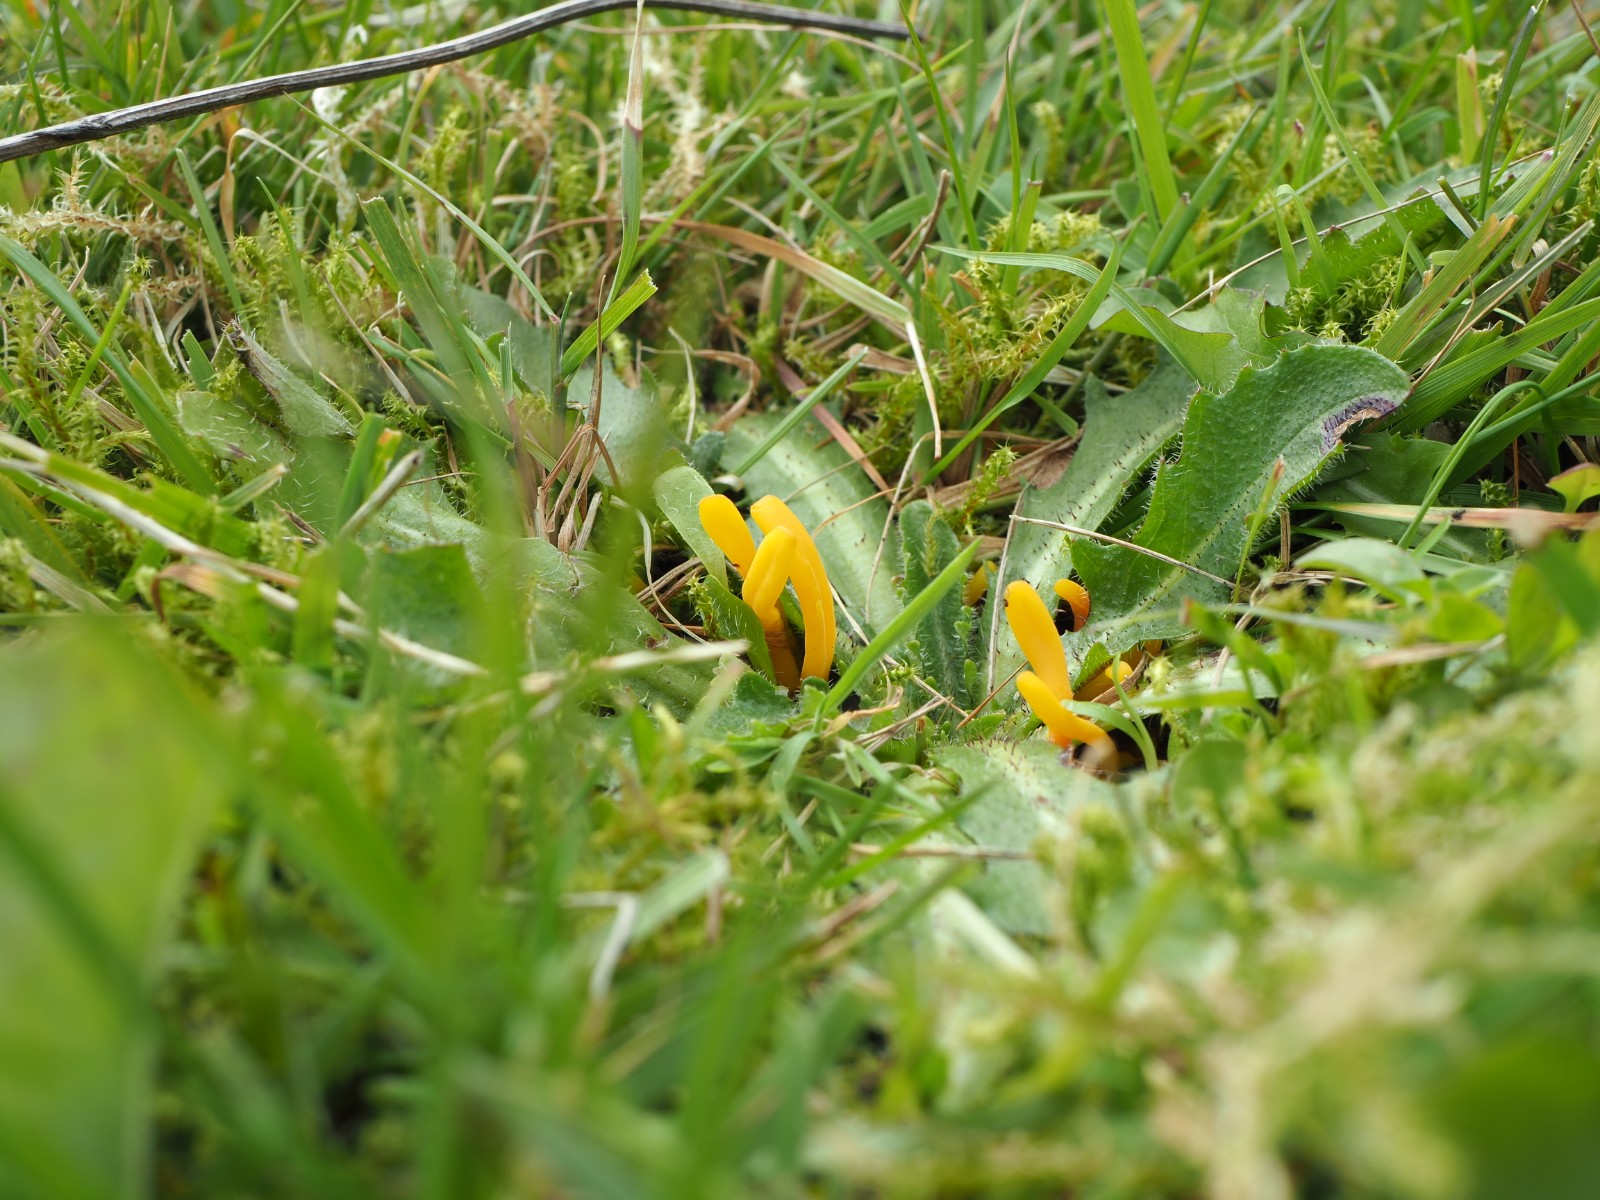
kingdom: Fungi
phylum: Basidiomycota
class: Agaricomycetes
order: Agaricales
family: Clavariaceae
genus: Clavulinopsis
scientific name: Clavulinopsis helvola
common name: orangegul køllesvamp
